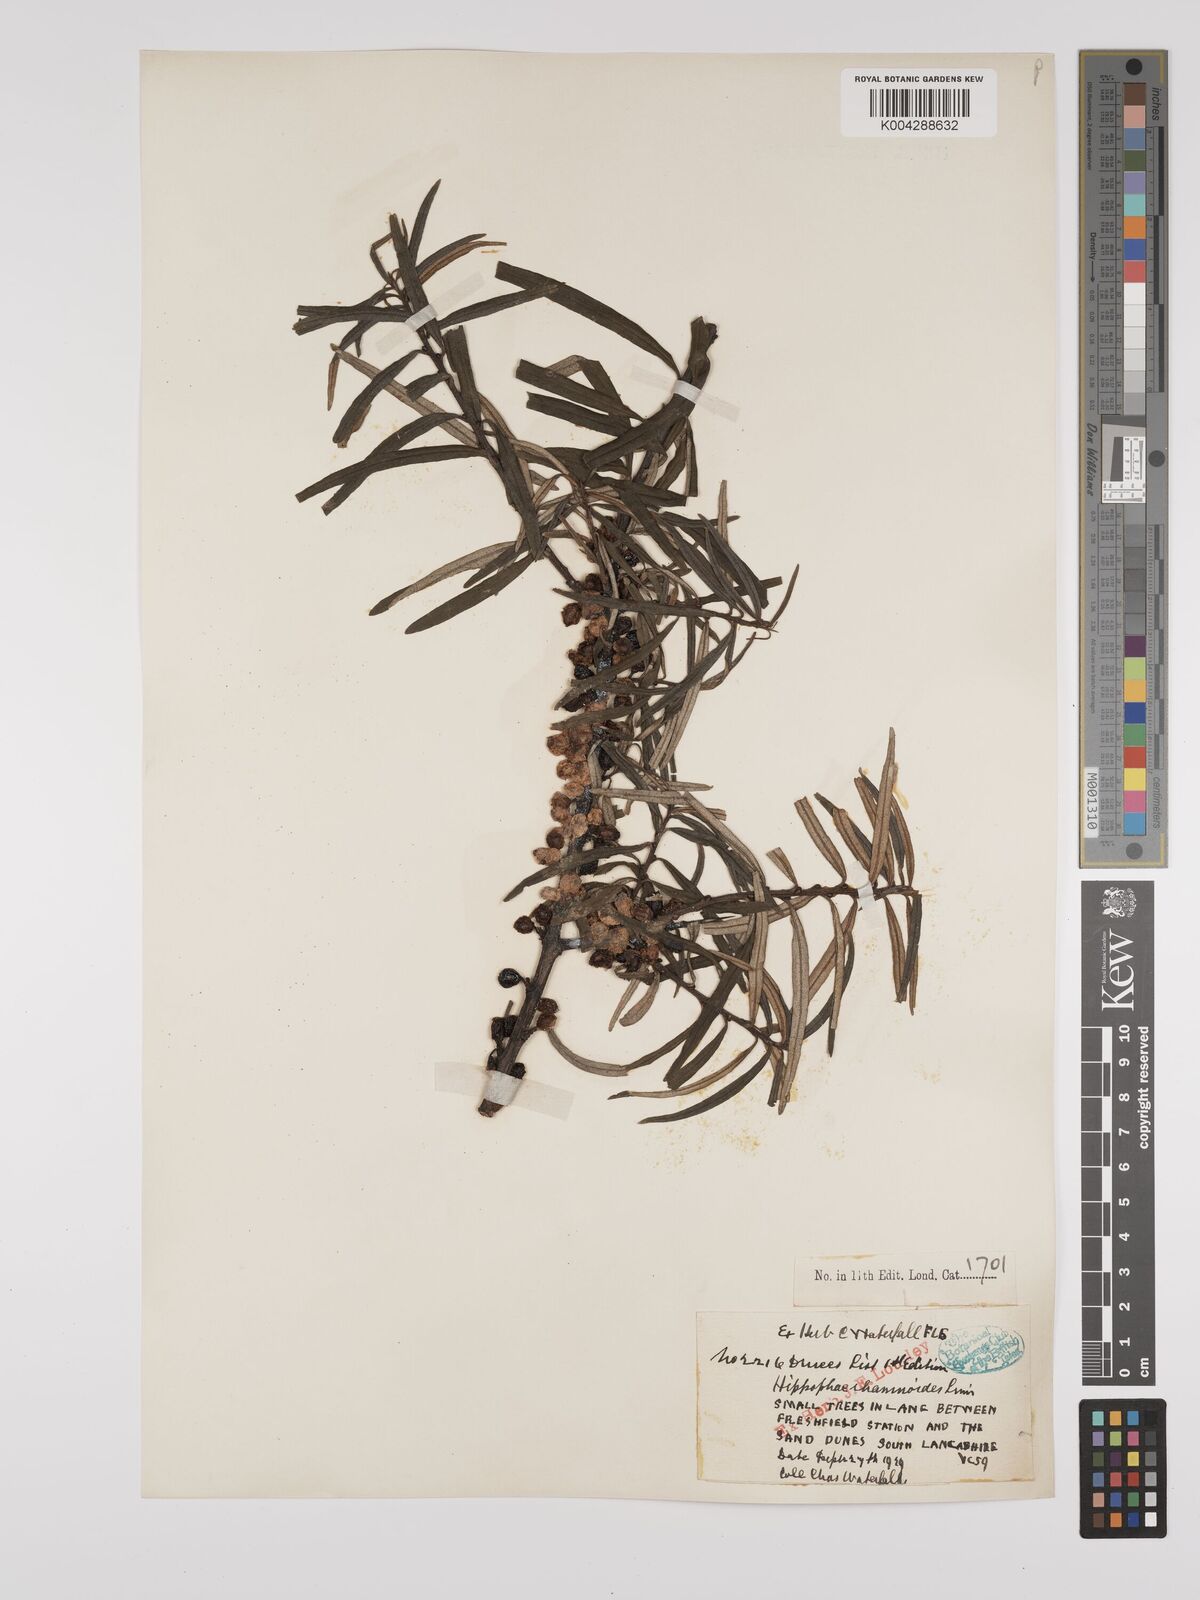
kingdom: Plantae
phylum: Tracheophyta
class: Magnoliopsida
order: Rosales
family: Elaeagnaceae
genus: Hippophae
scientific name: Hippophae rhamnoides
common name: Sea-buckthorn
